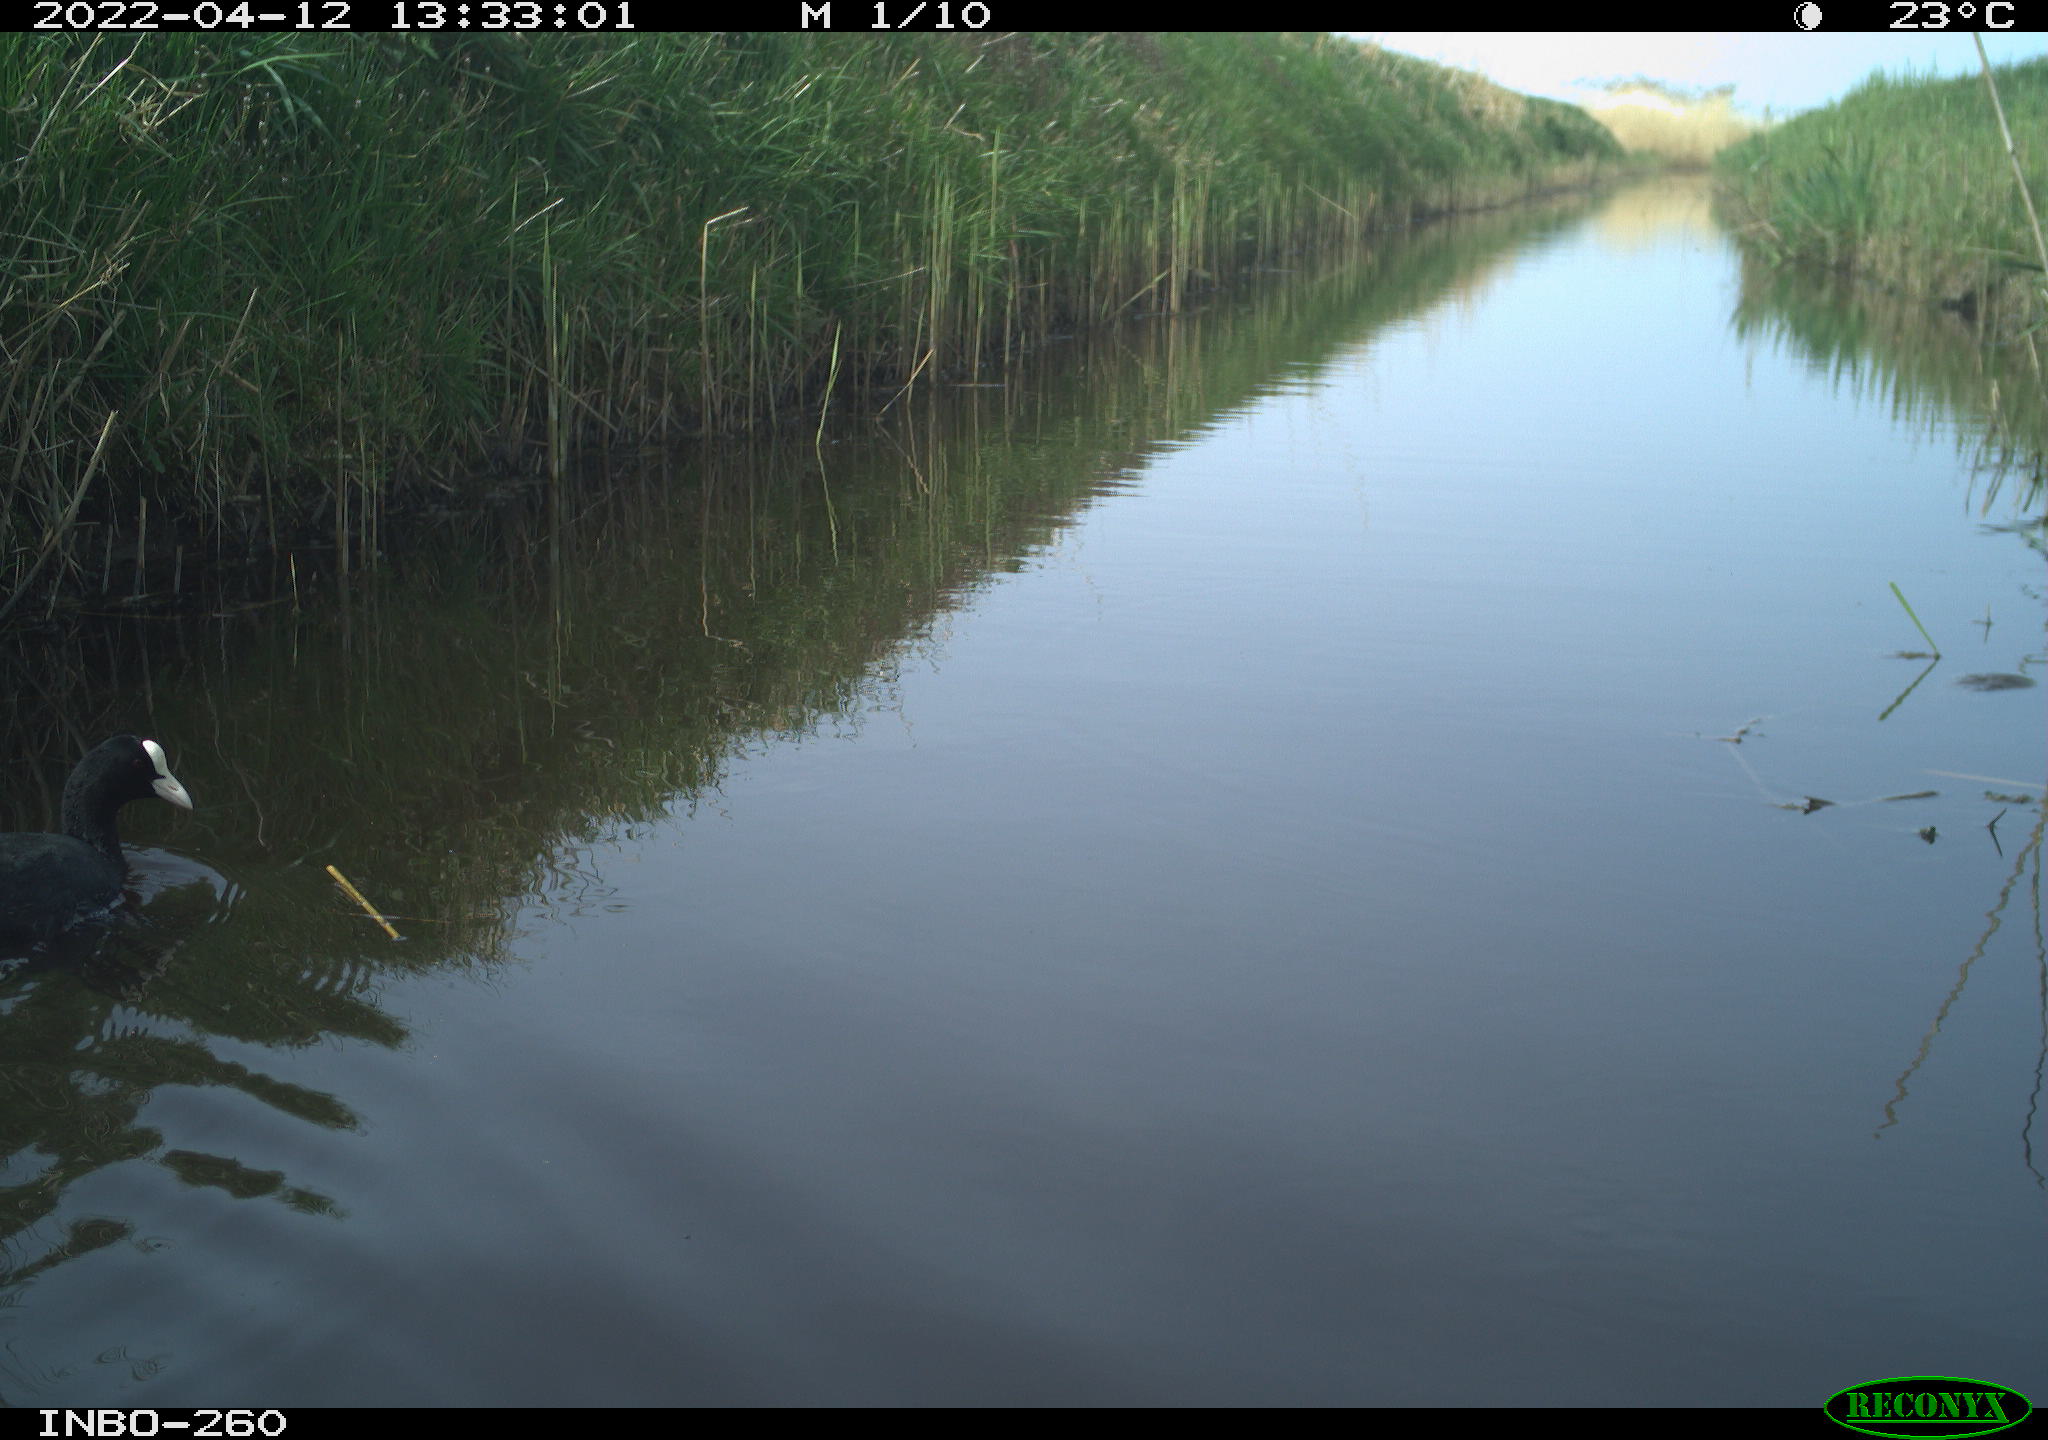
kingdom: Animalia
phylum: Chordata
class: Aves
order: Gruiformes
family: Rallidae
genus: Fulica
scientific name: Fulica atra
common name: Eurasian coot
